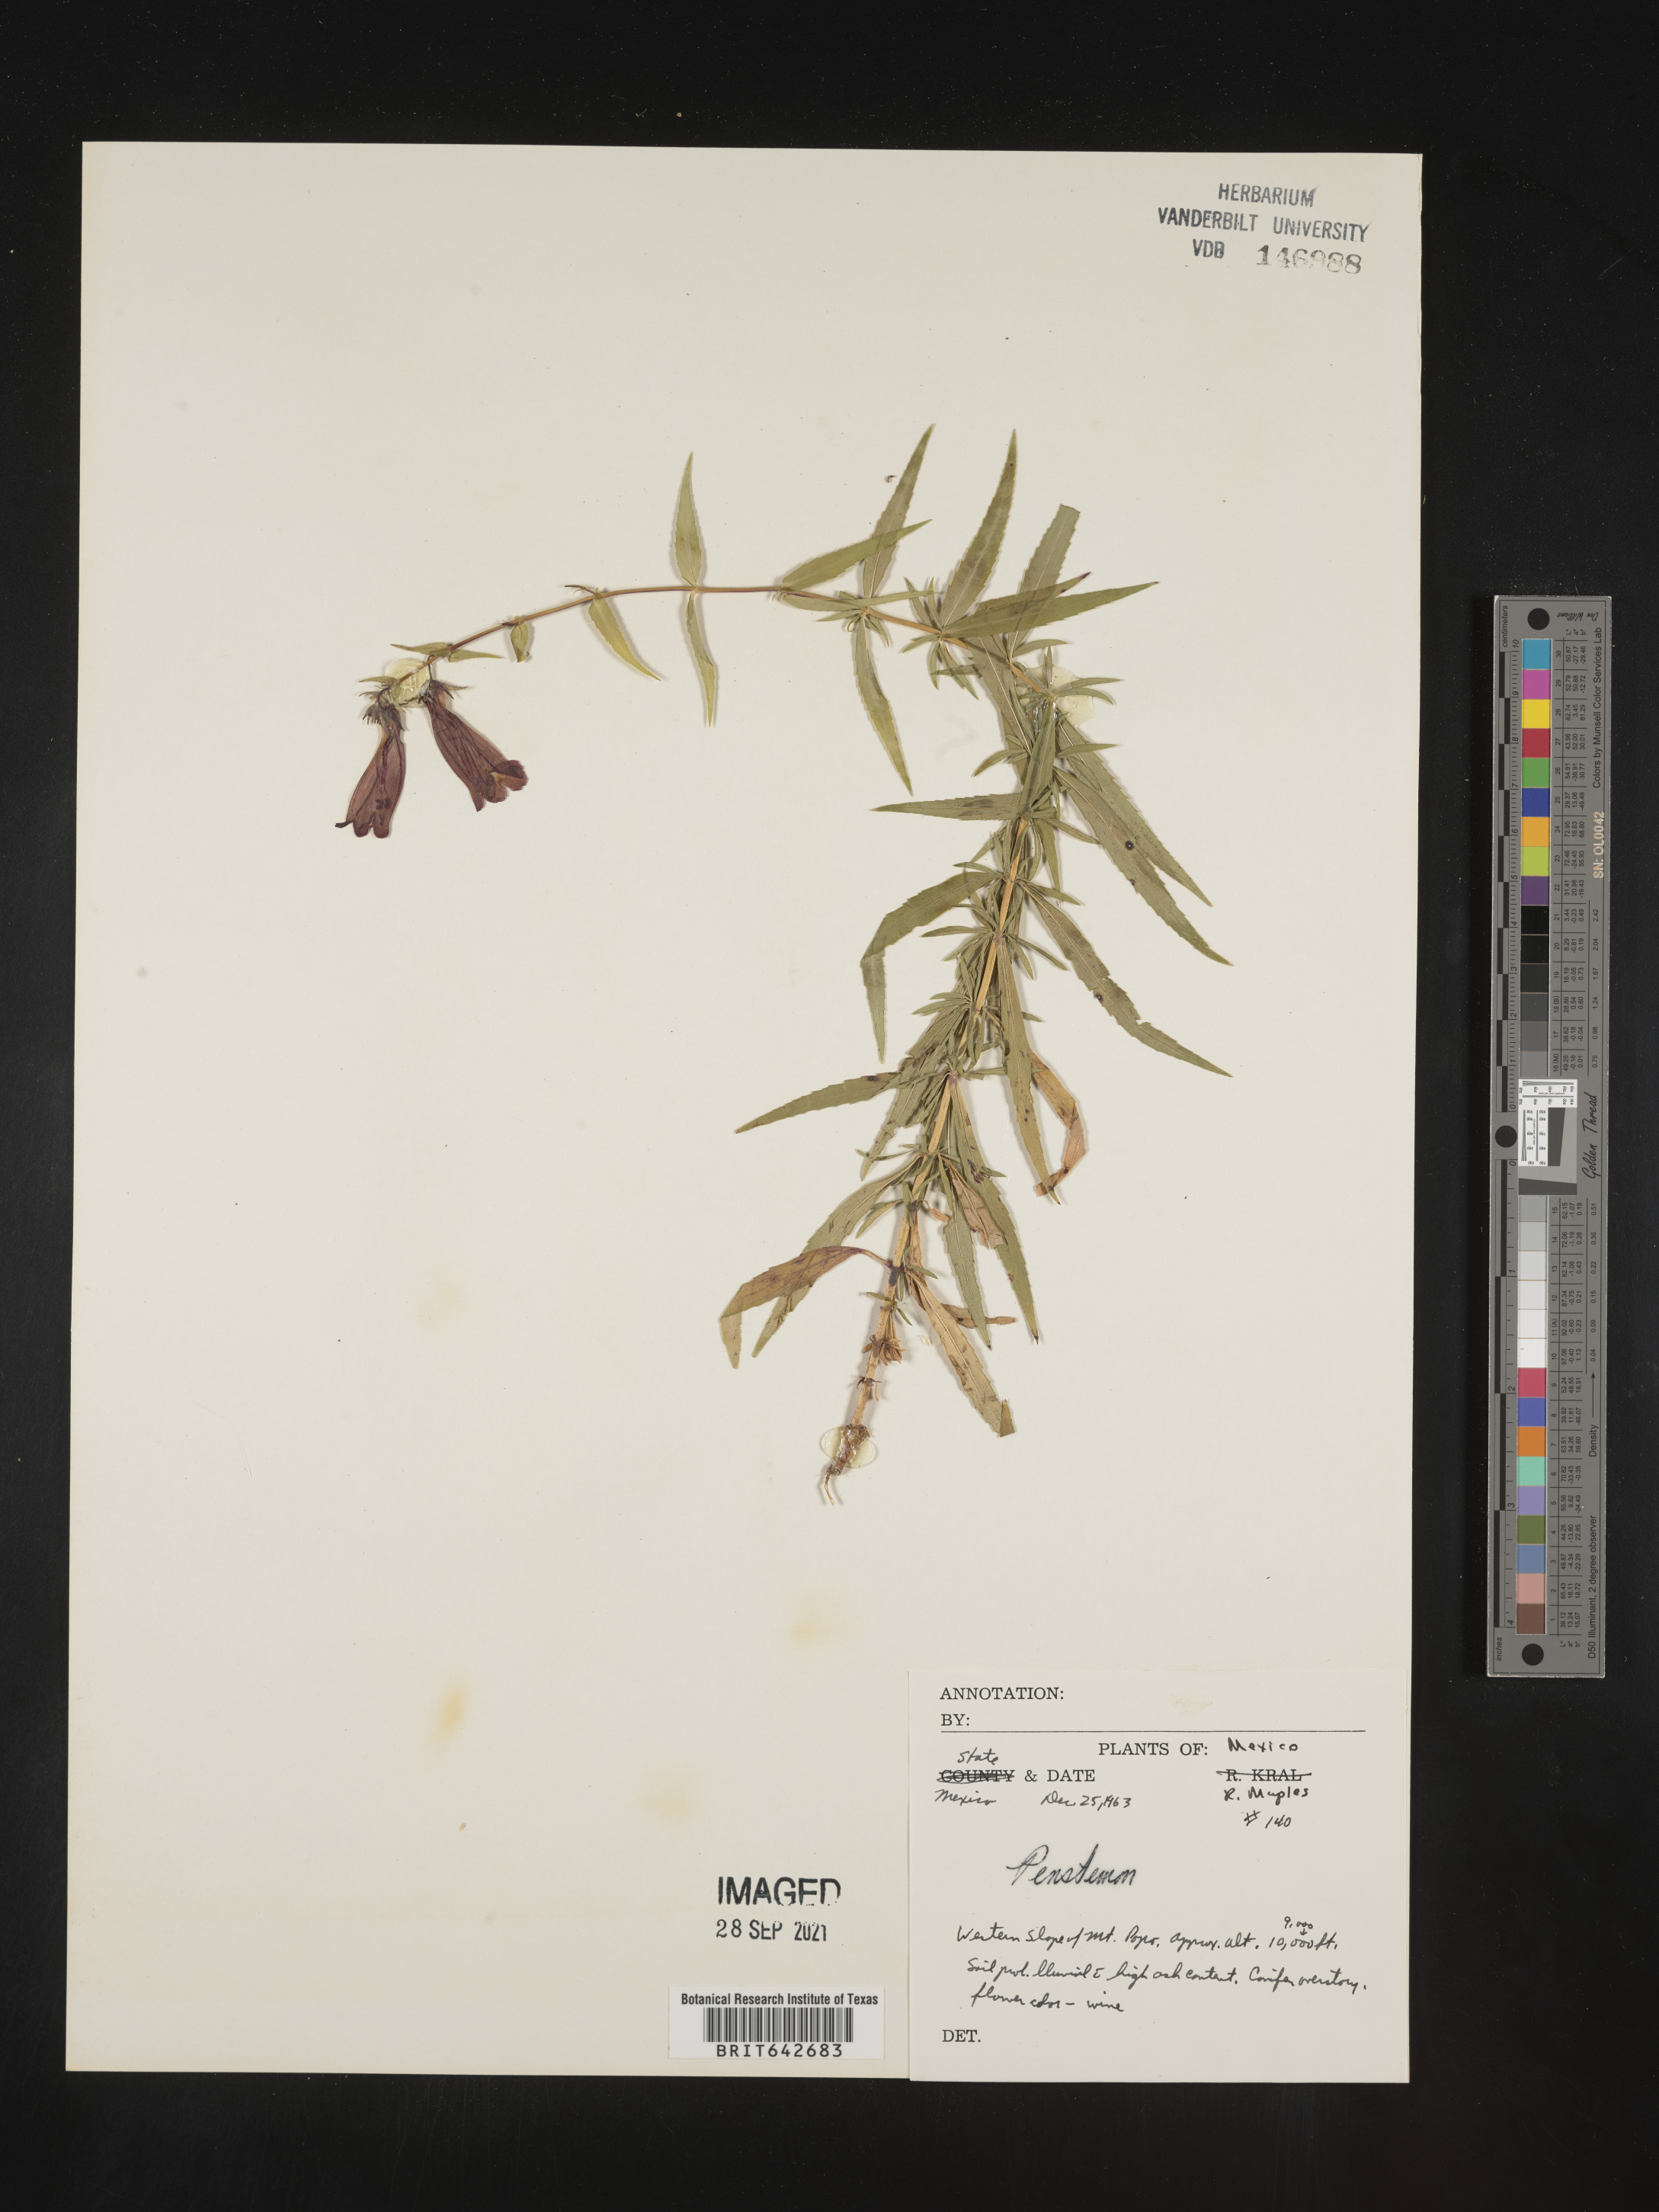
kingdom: Plantae
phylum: Tracheophyta
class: Magnoliopsida
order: Lamiales
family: Plantaginaceae
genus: Penstemon
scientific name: Penstemon
